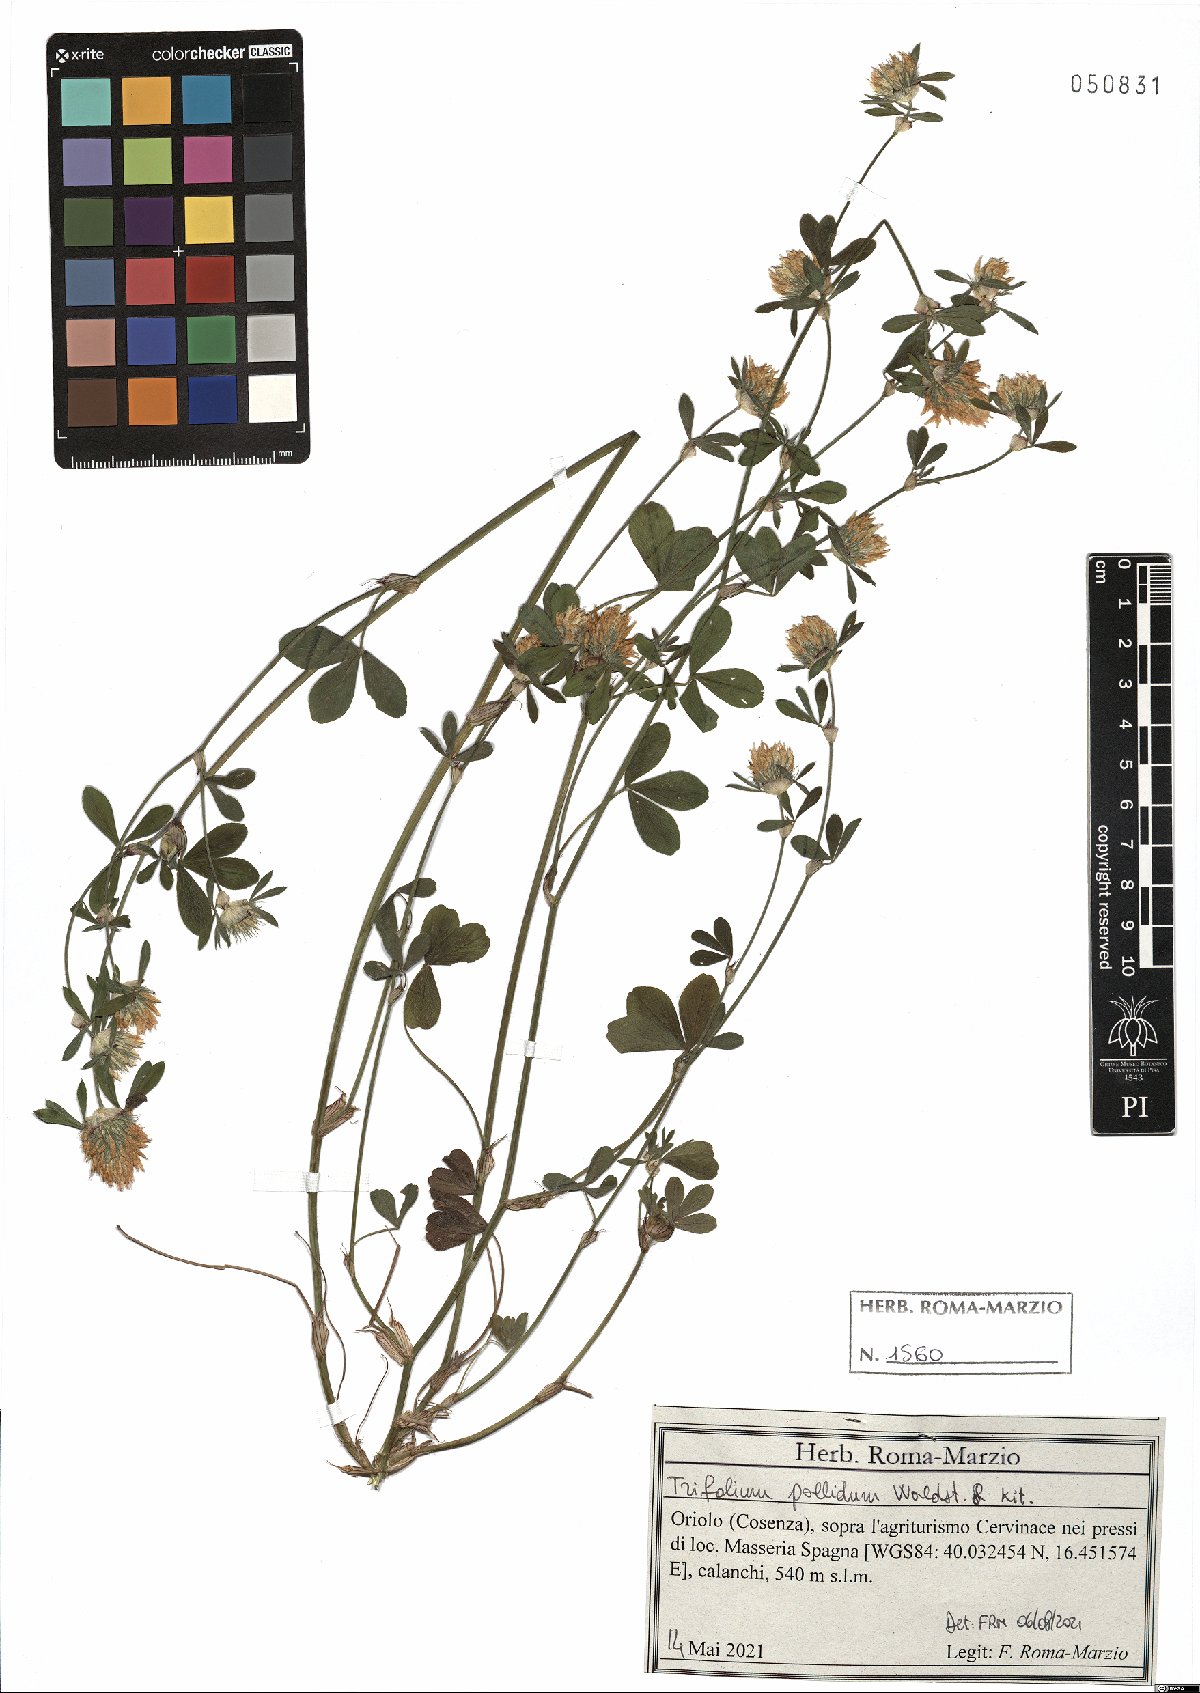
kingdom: Plantae
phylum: Tracheophyta
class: Magnoliopsida
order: Fabales
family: Fabaceae
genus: Trifolium
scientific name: Trifolium pallidum
